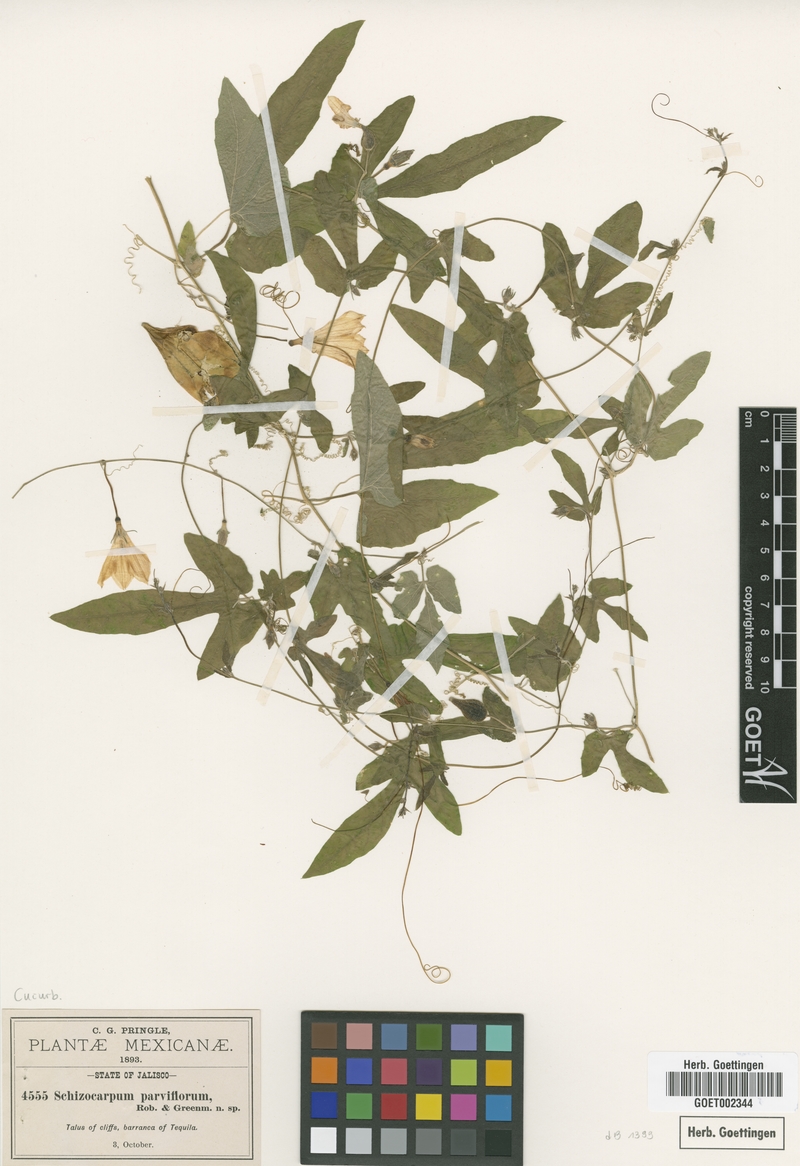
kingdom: Plantae
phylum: Tracheophyta
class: Magnoliopsida
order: Cucurbitales
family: Cucurbitaceae
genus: Schizocarpum
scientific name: Schizocarpum parviflorum
